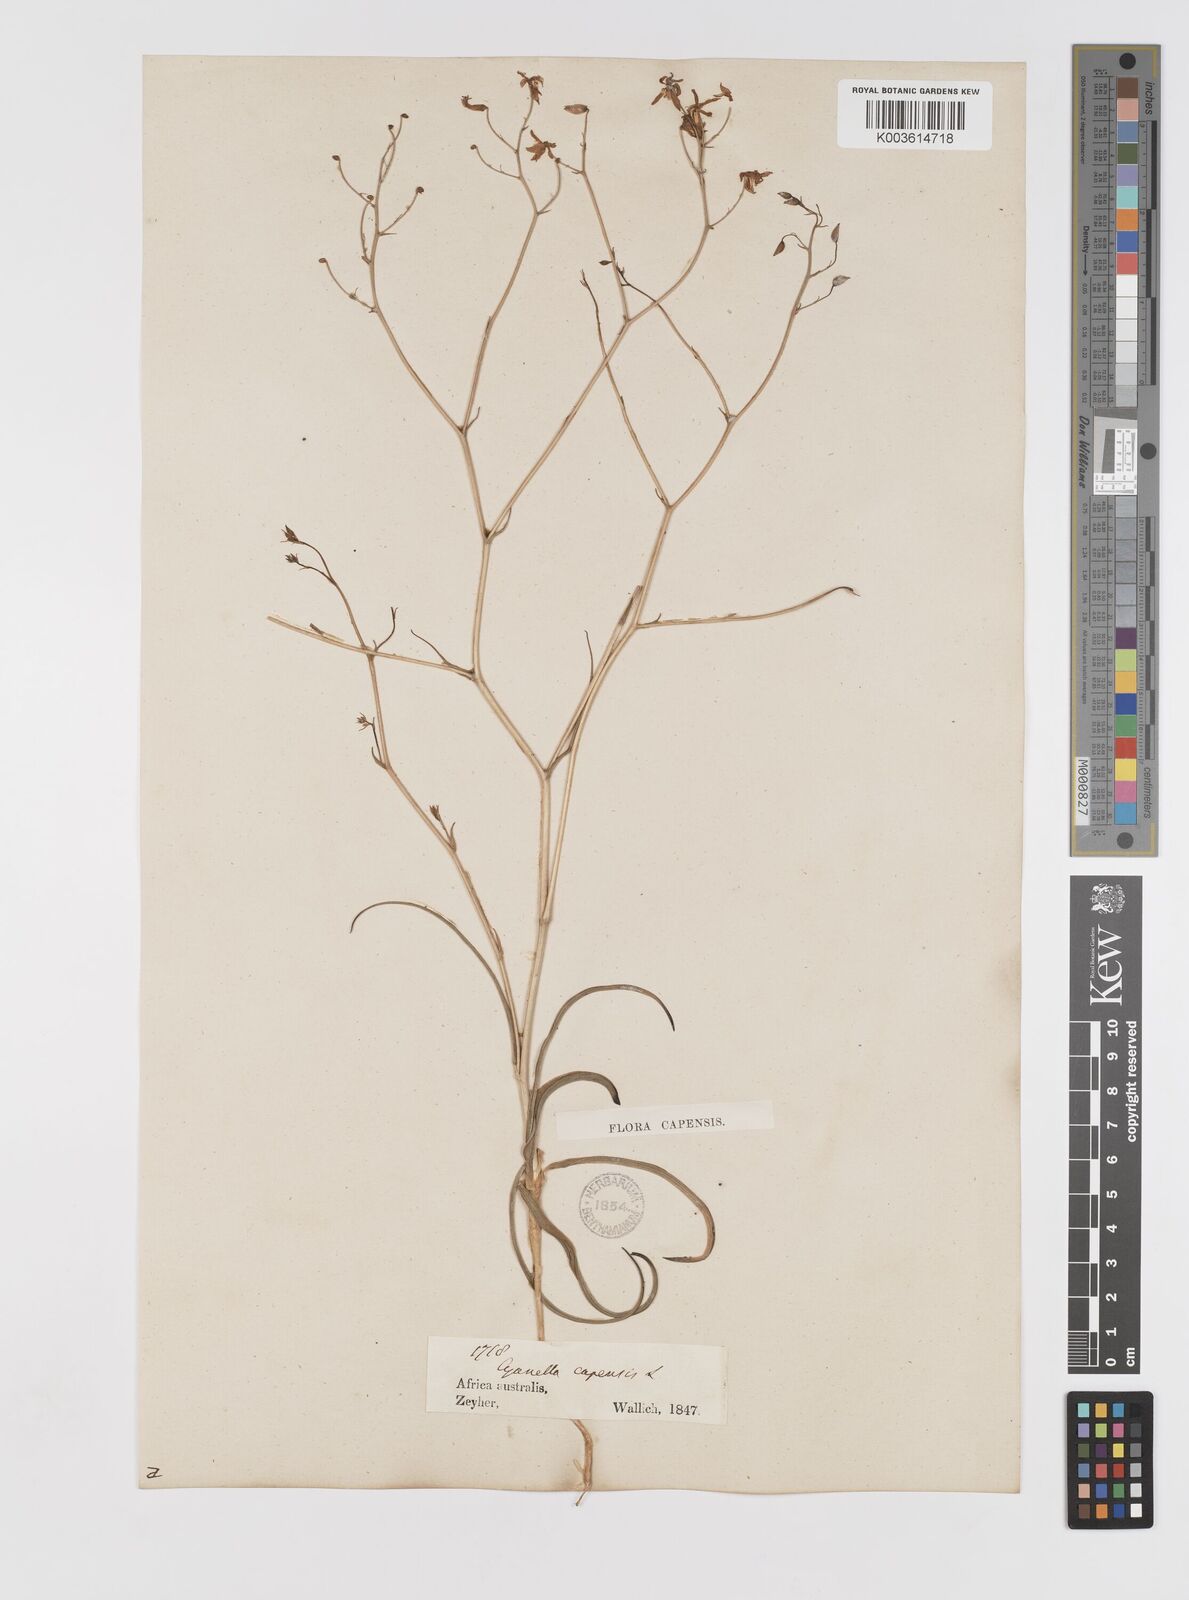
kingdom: Plantae
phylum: Tracheophyta
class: Liliopsida
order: Asparagales
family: Tecophilaeaceae
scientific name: Tecophilaeaceae
